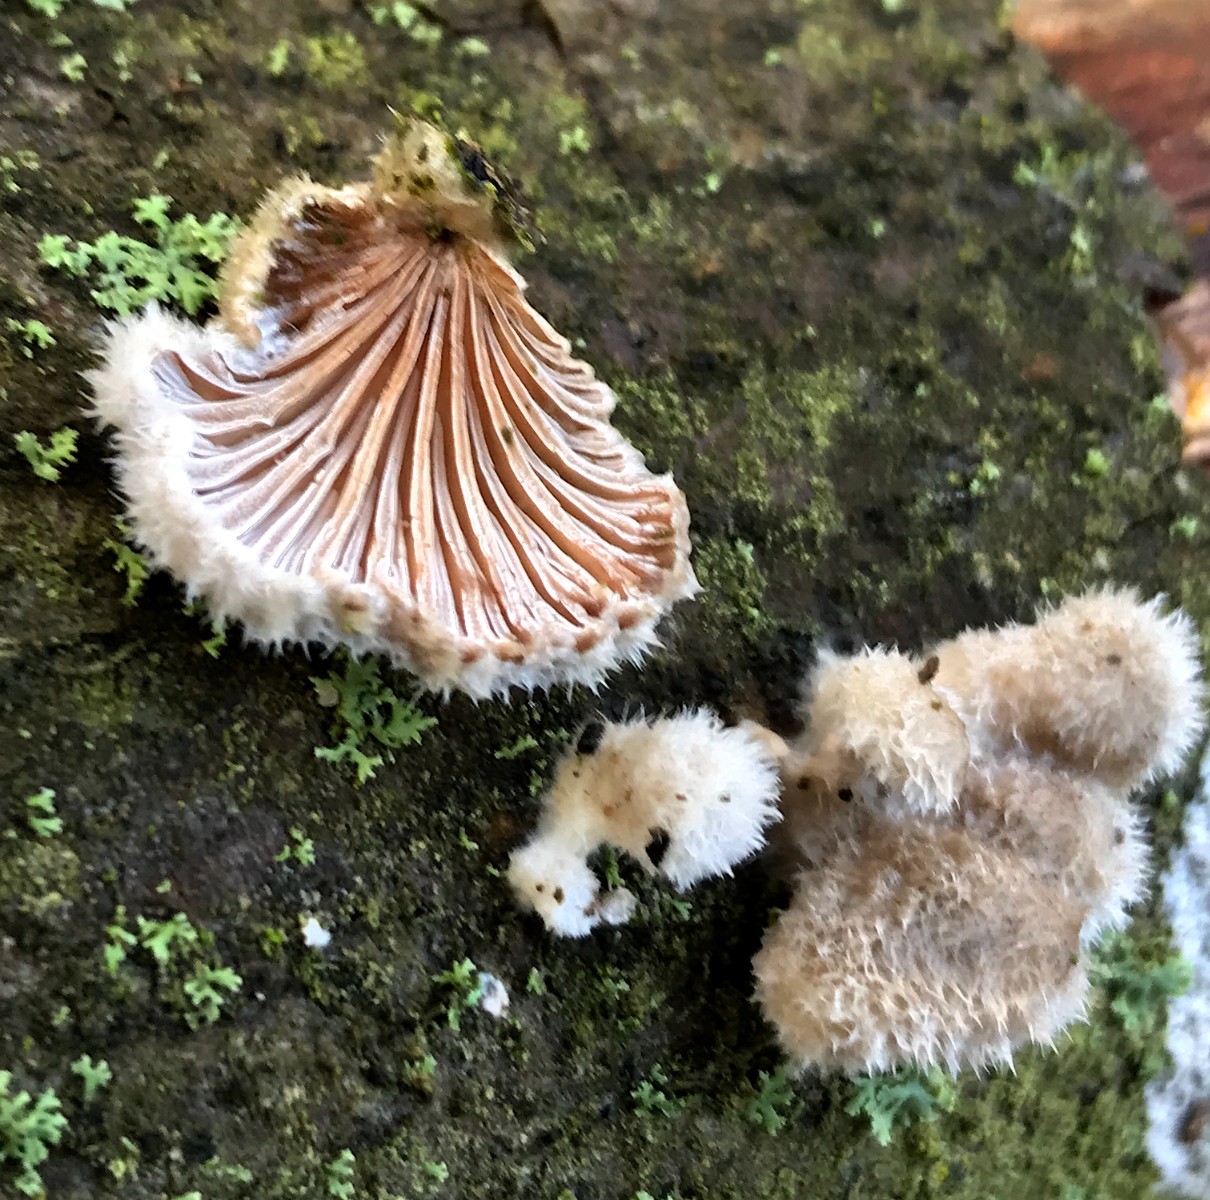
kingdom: Fungi
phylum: Basidiomycota
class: Agaricomycetes
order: Agaricales
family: Schizophyllaceae
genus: Schizophyllum
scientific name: Schizophyllum commune
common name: kløvblad
